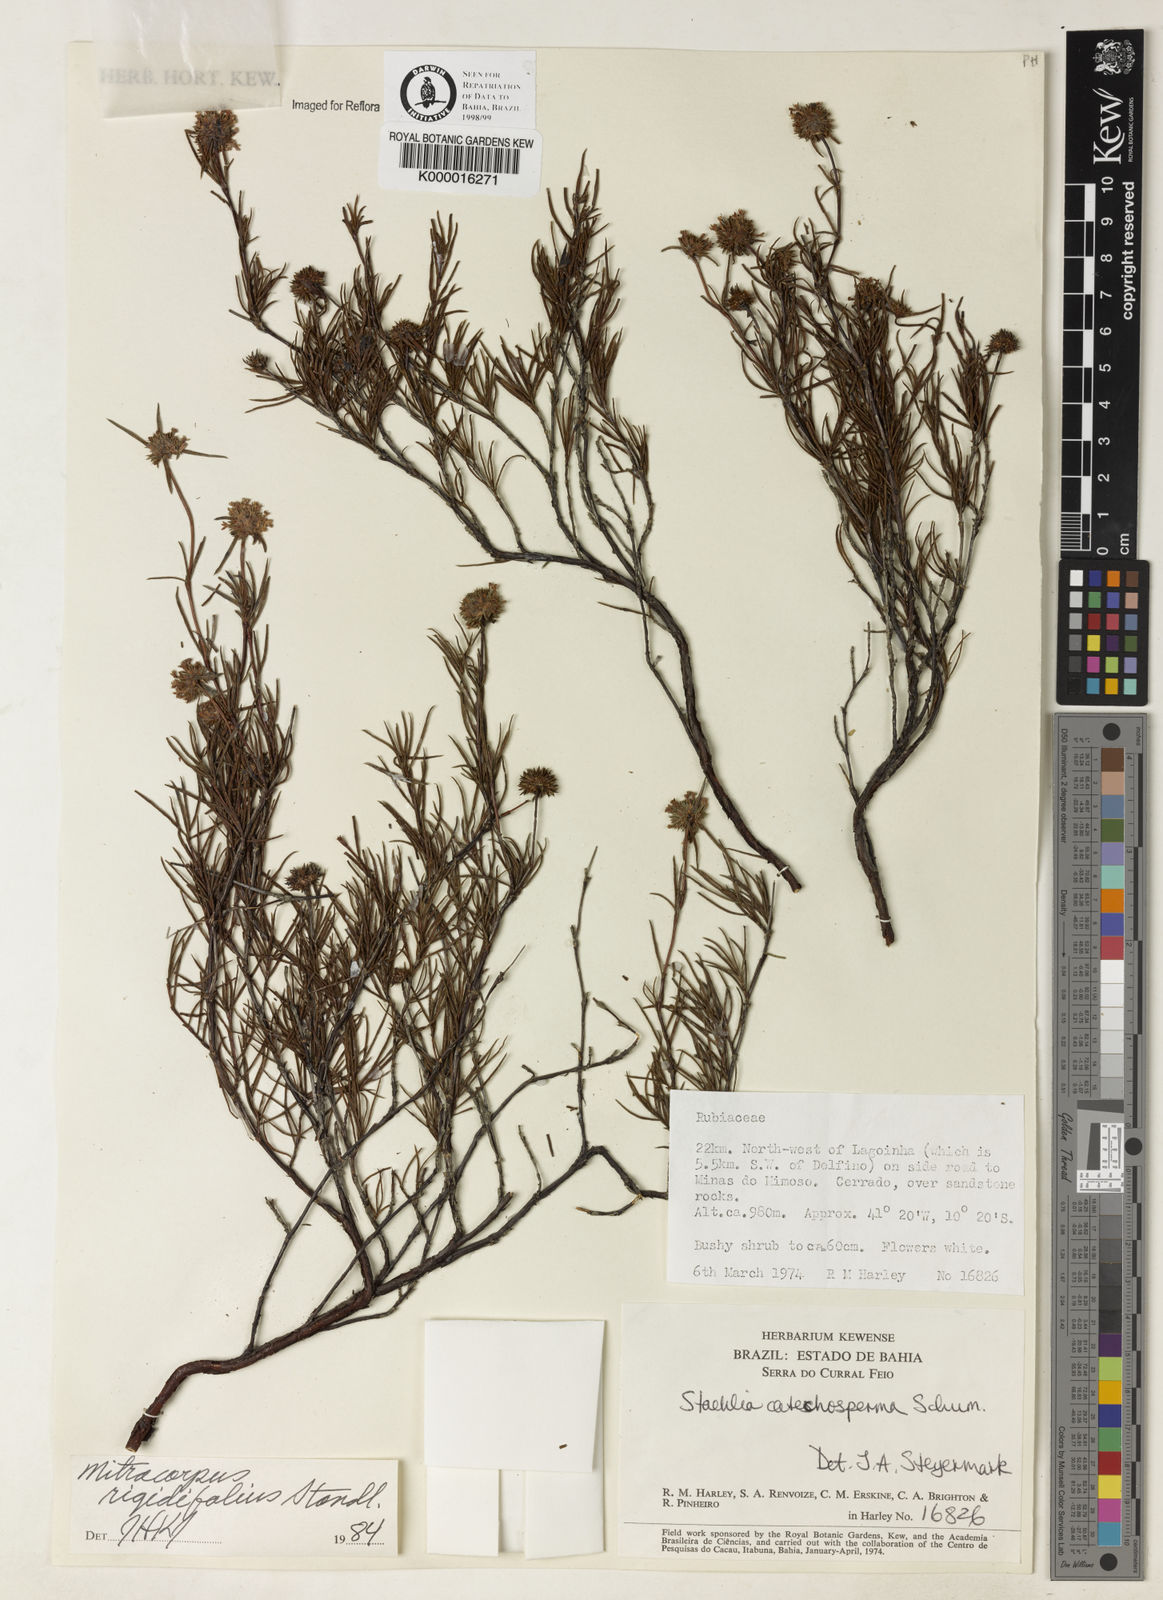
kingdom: Plantae
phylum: Tracheophyta
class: Magnoliopsida
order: Gentianales
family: Rubiaceae
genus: Mitracarpus
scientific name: Mitracarpus rigidifolius
